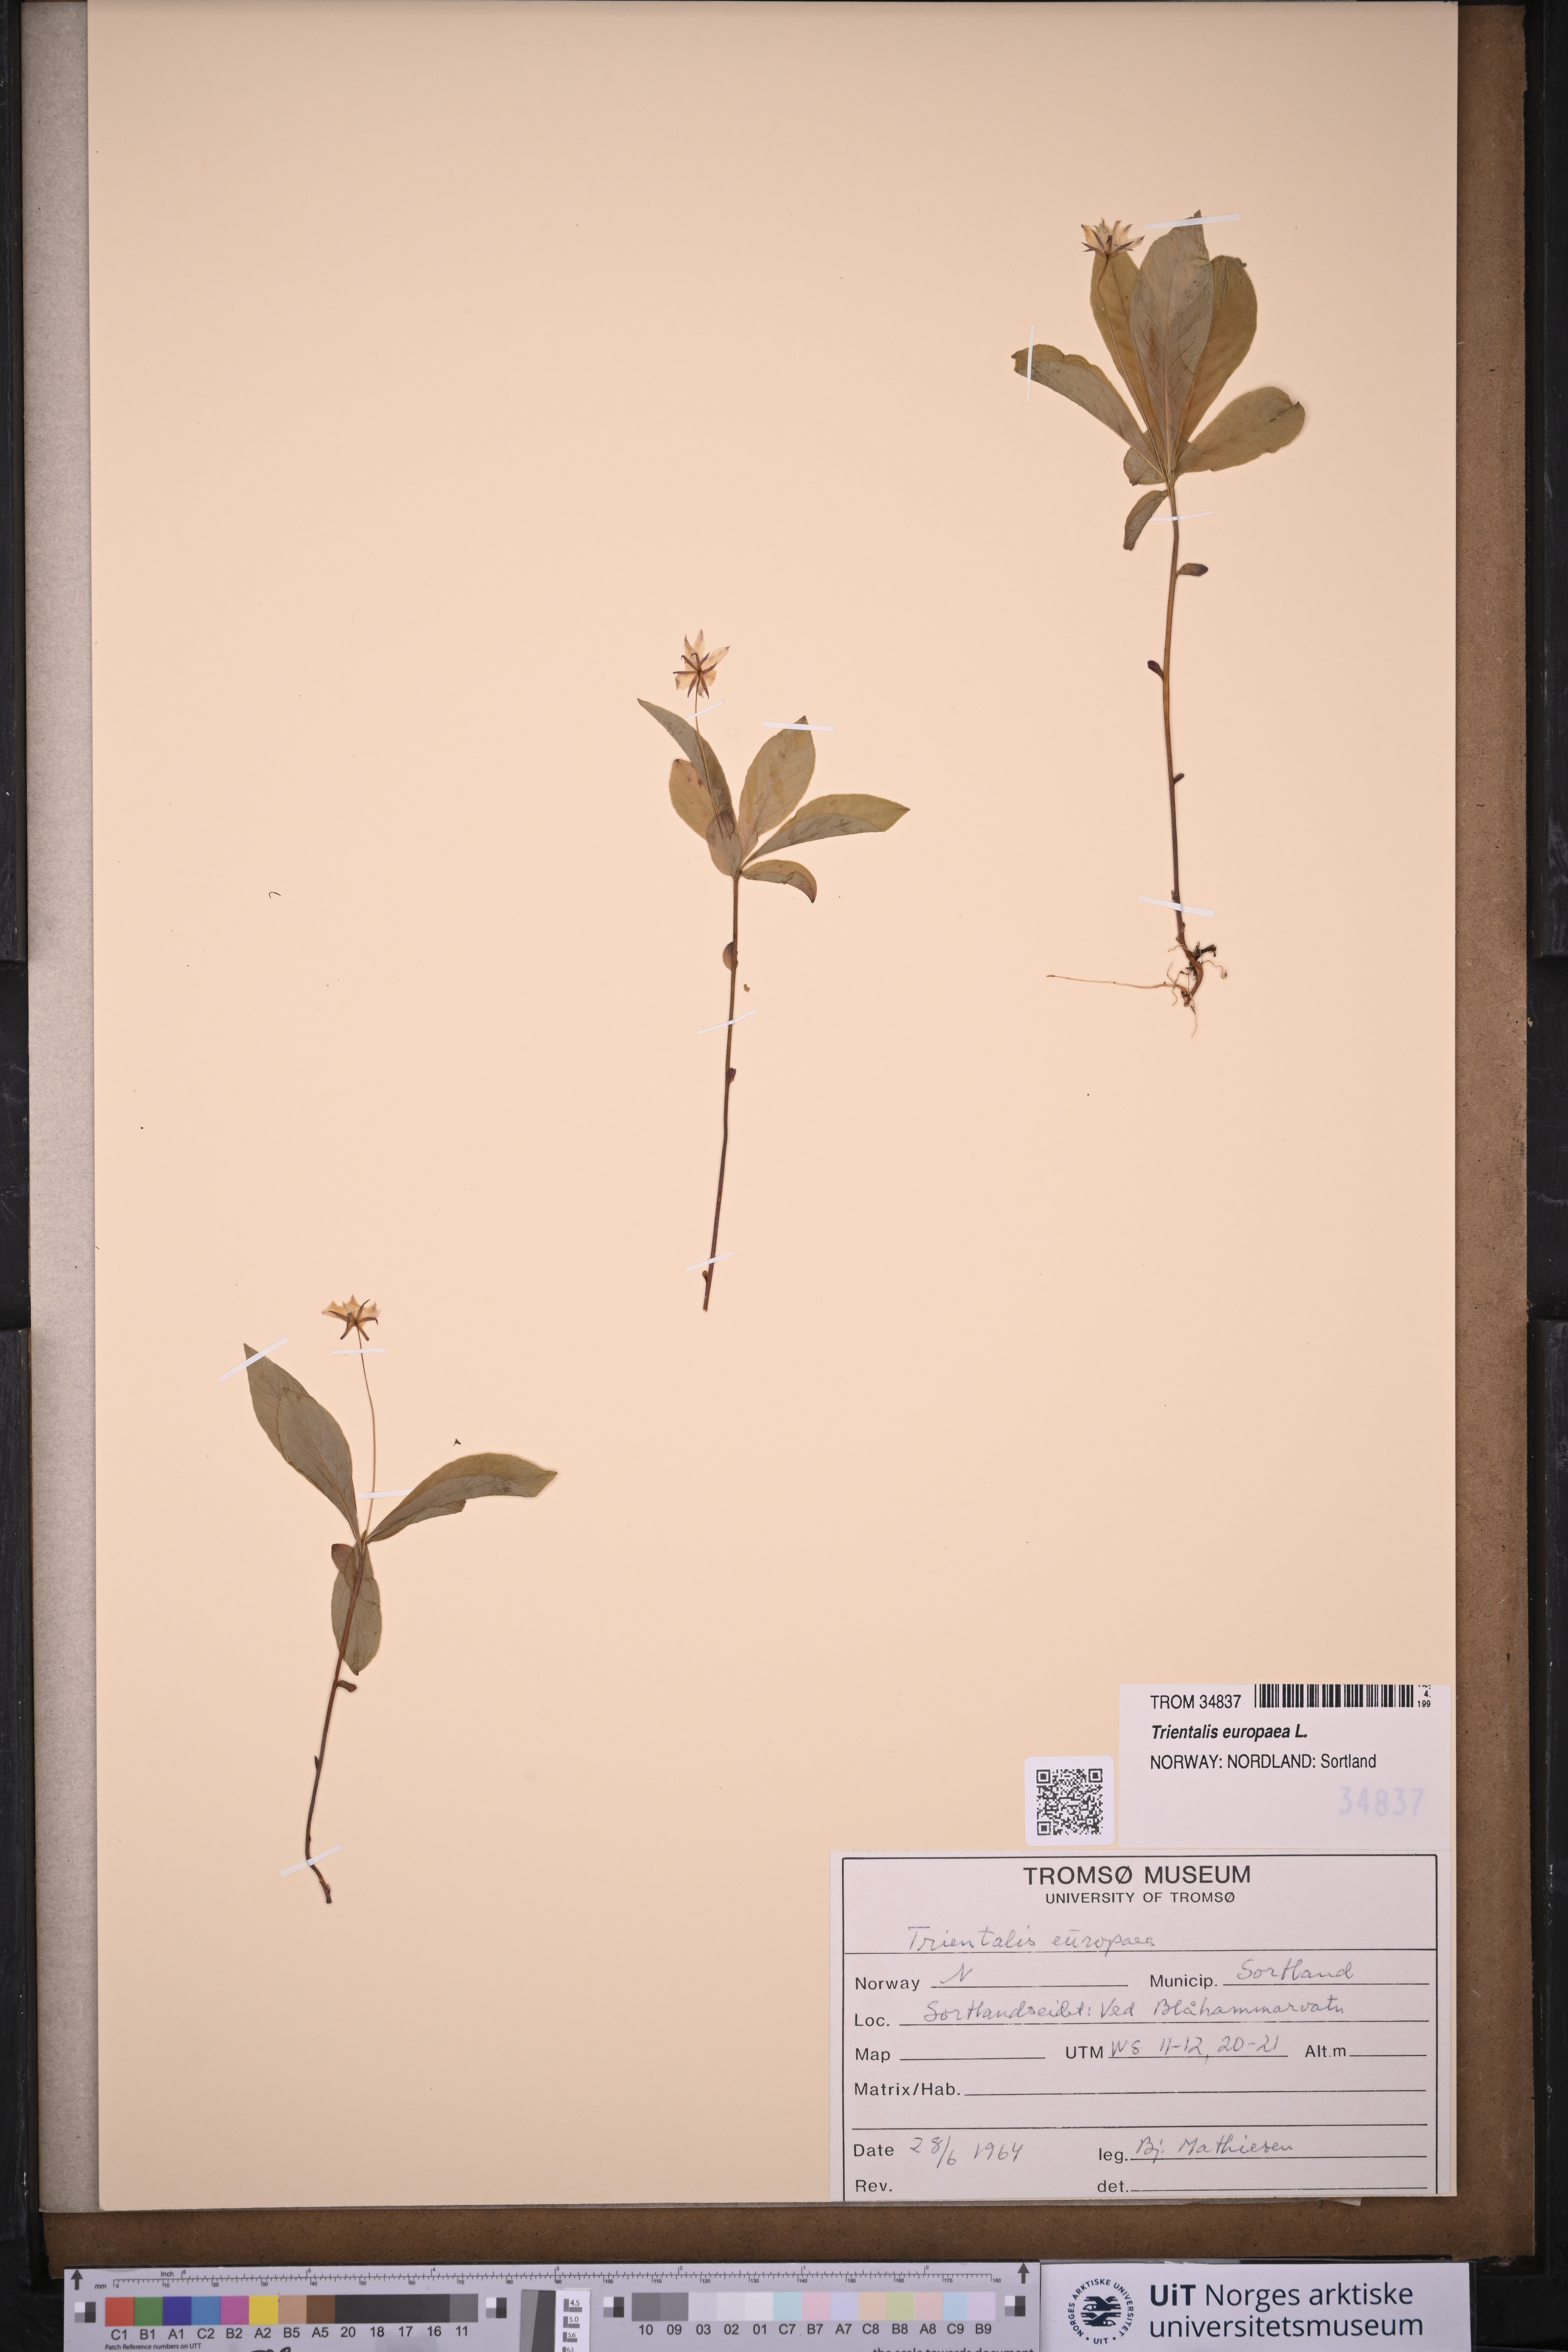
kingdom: Plantae
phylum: Tracheophyta
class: Magnoliopsida
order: Ericales
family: Primulaceae
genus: Lysimachia
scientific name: Lysimachia europaea
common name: Arctic starflower
